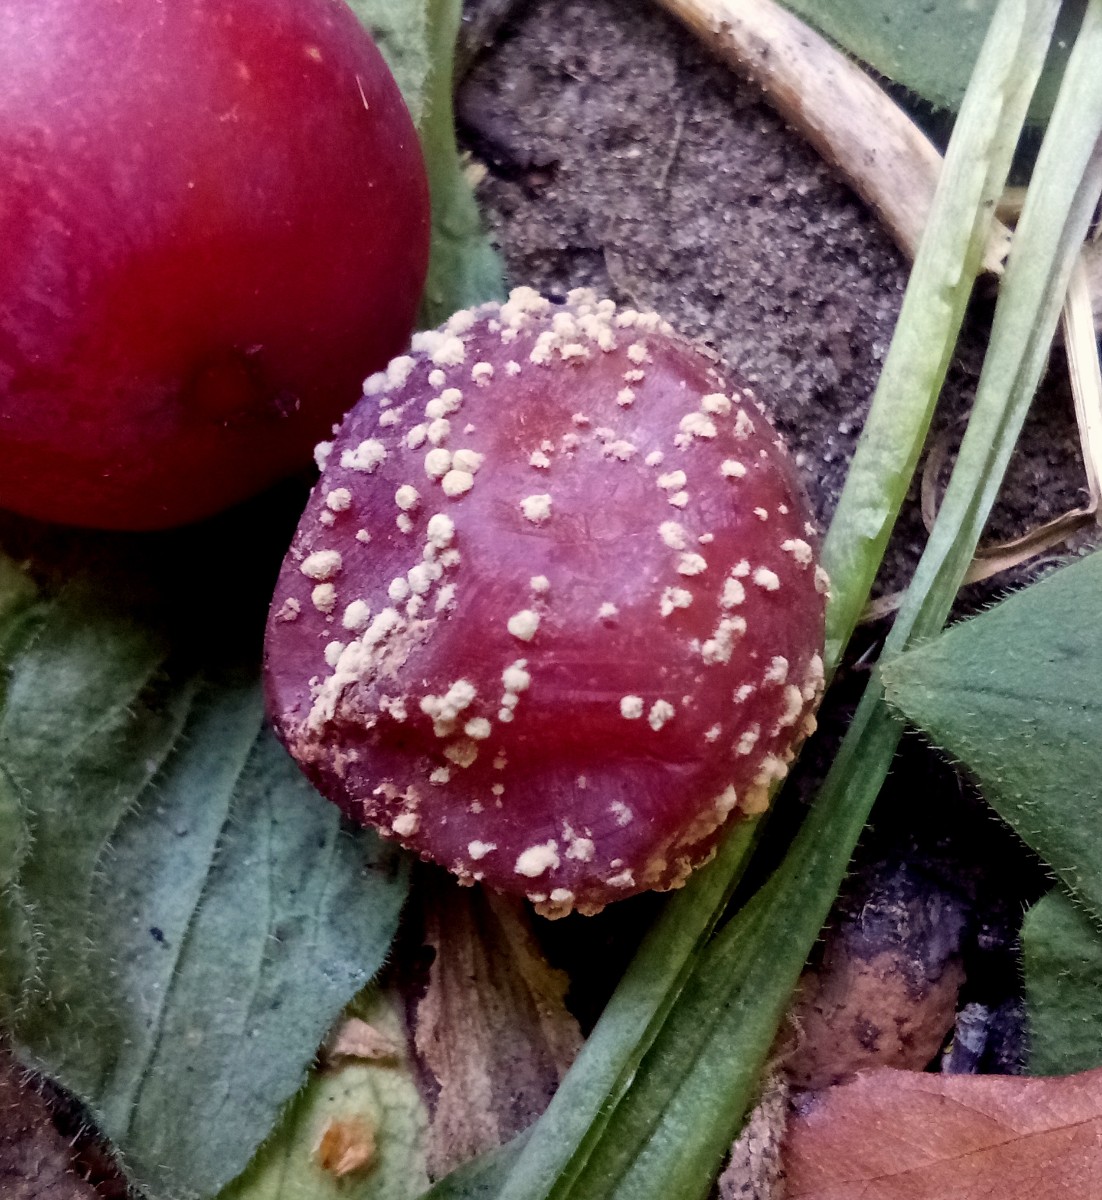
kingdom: Fungi
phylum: Ascomycota
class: Leotiomycetes
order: Helotiales
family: Sclerotiniaceae
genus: Monilinia
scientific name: Monilinia laxa
